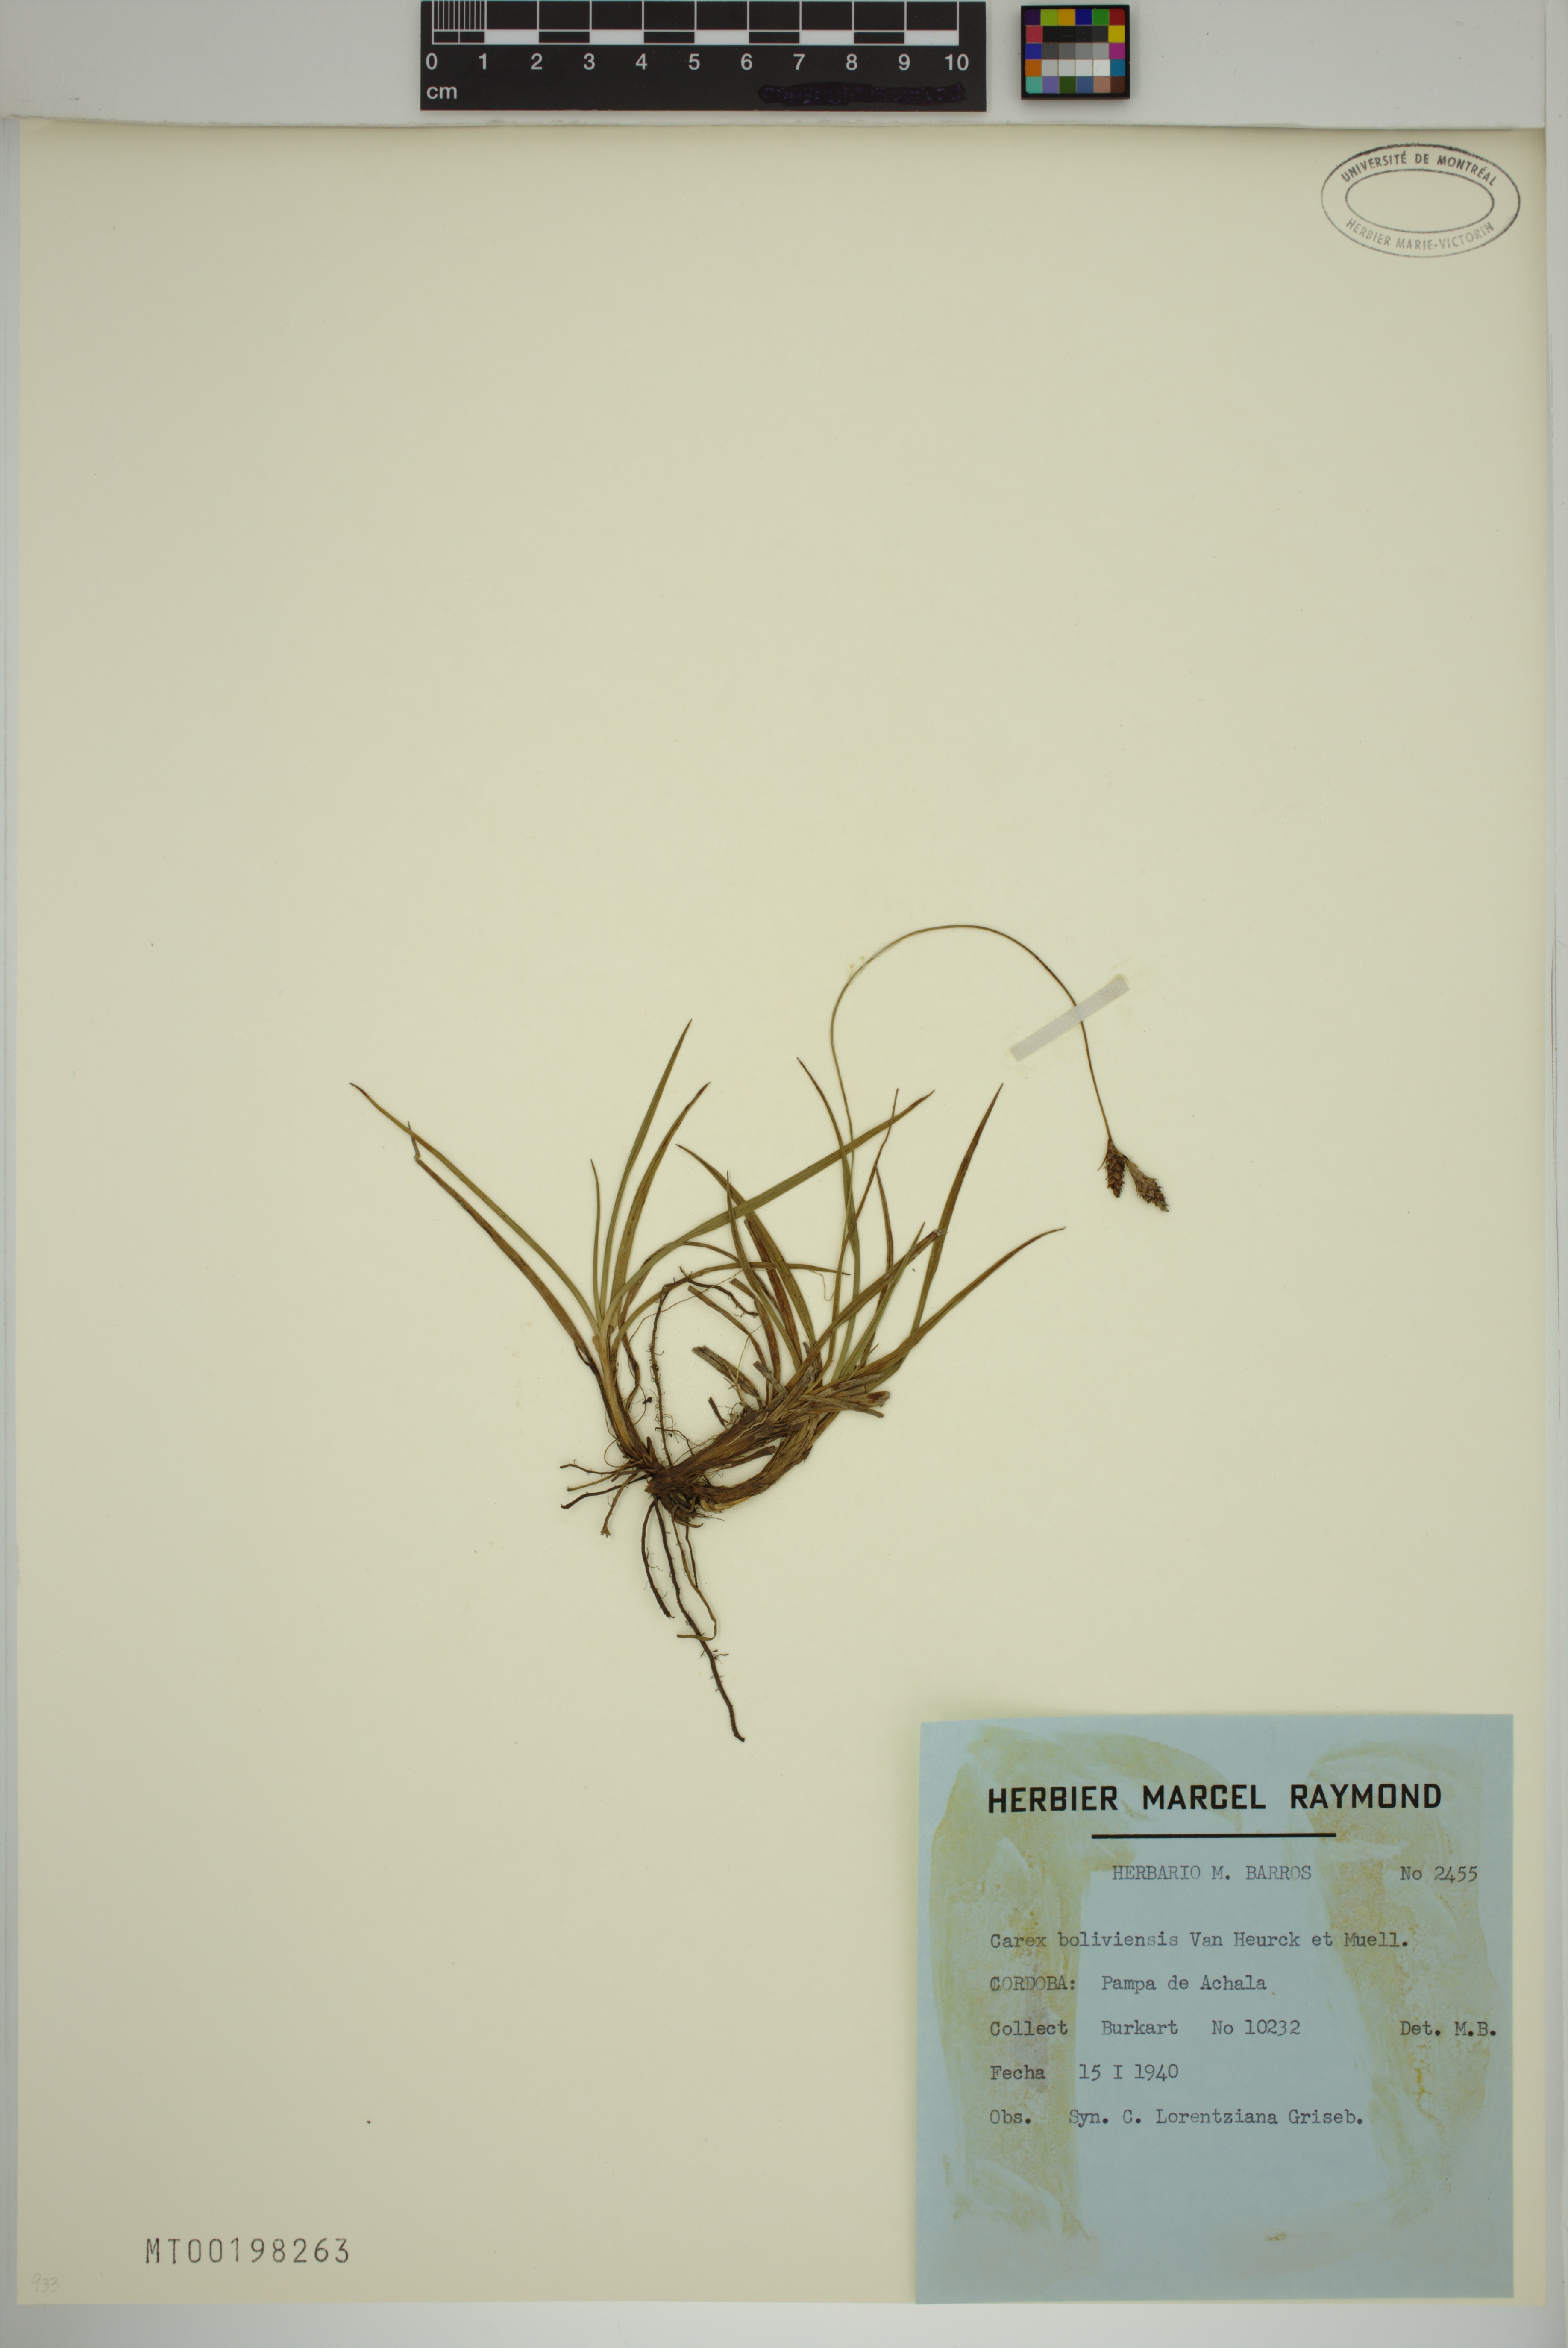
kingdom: Plantae
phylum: Tracheophyta
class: Liliopsida
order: Poales
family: Cyperaceae
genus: Carex
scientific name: Carex boliviensis
